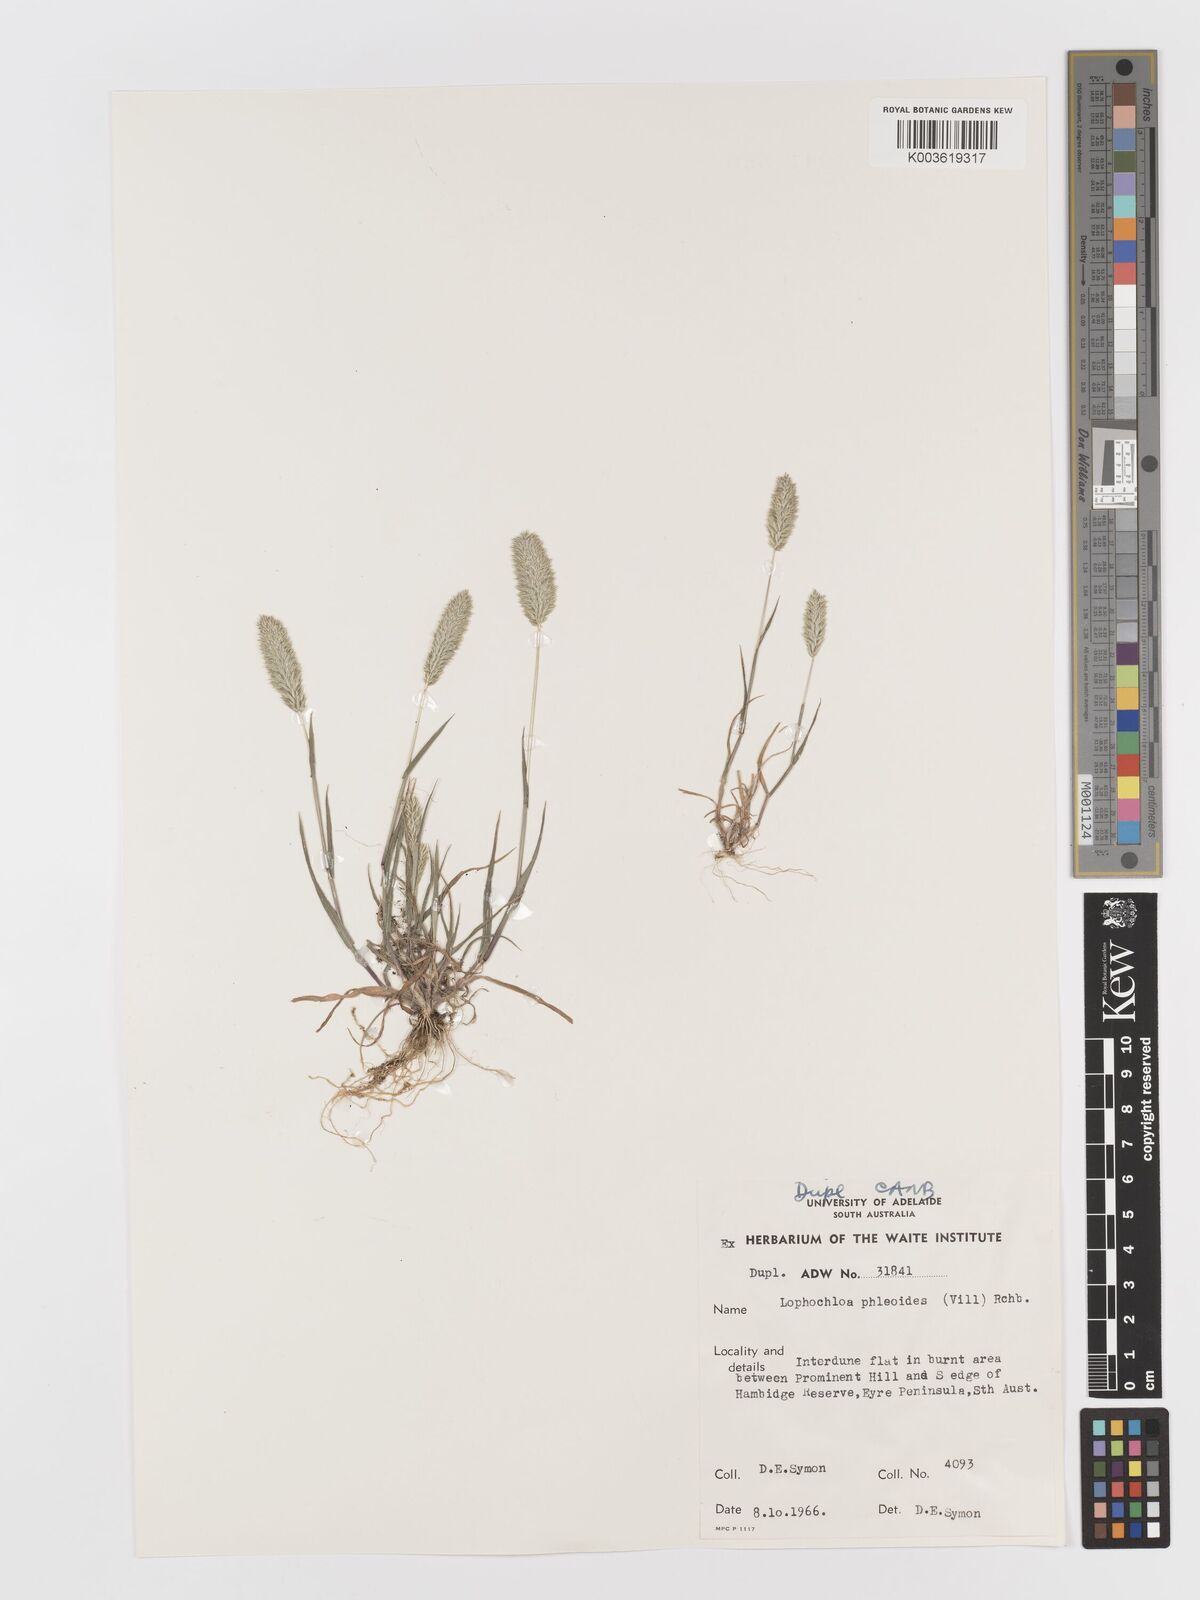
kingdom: Plantae
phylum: Tracheophyta
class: Liliopsida
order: Poales
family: Poaceae
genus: Rostraria
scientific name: Rostraria cristata
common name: Mediterranean hair-grass
